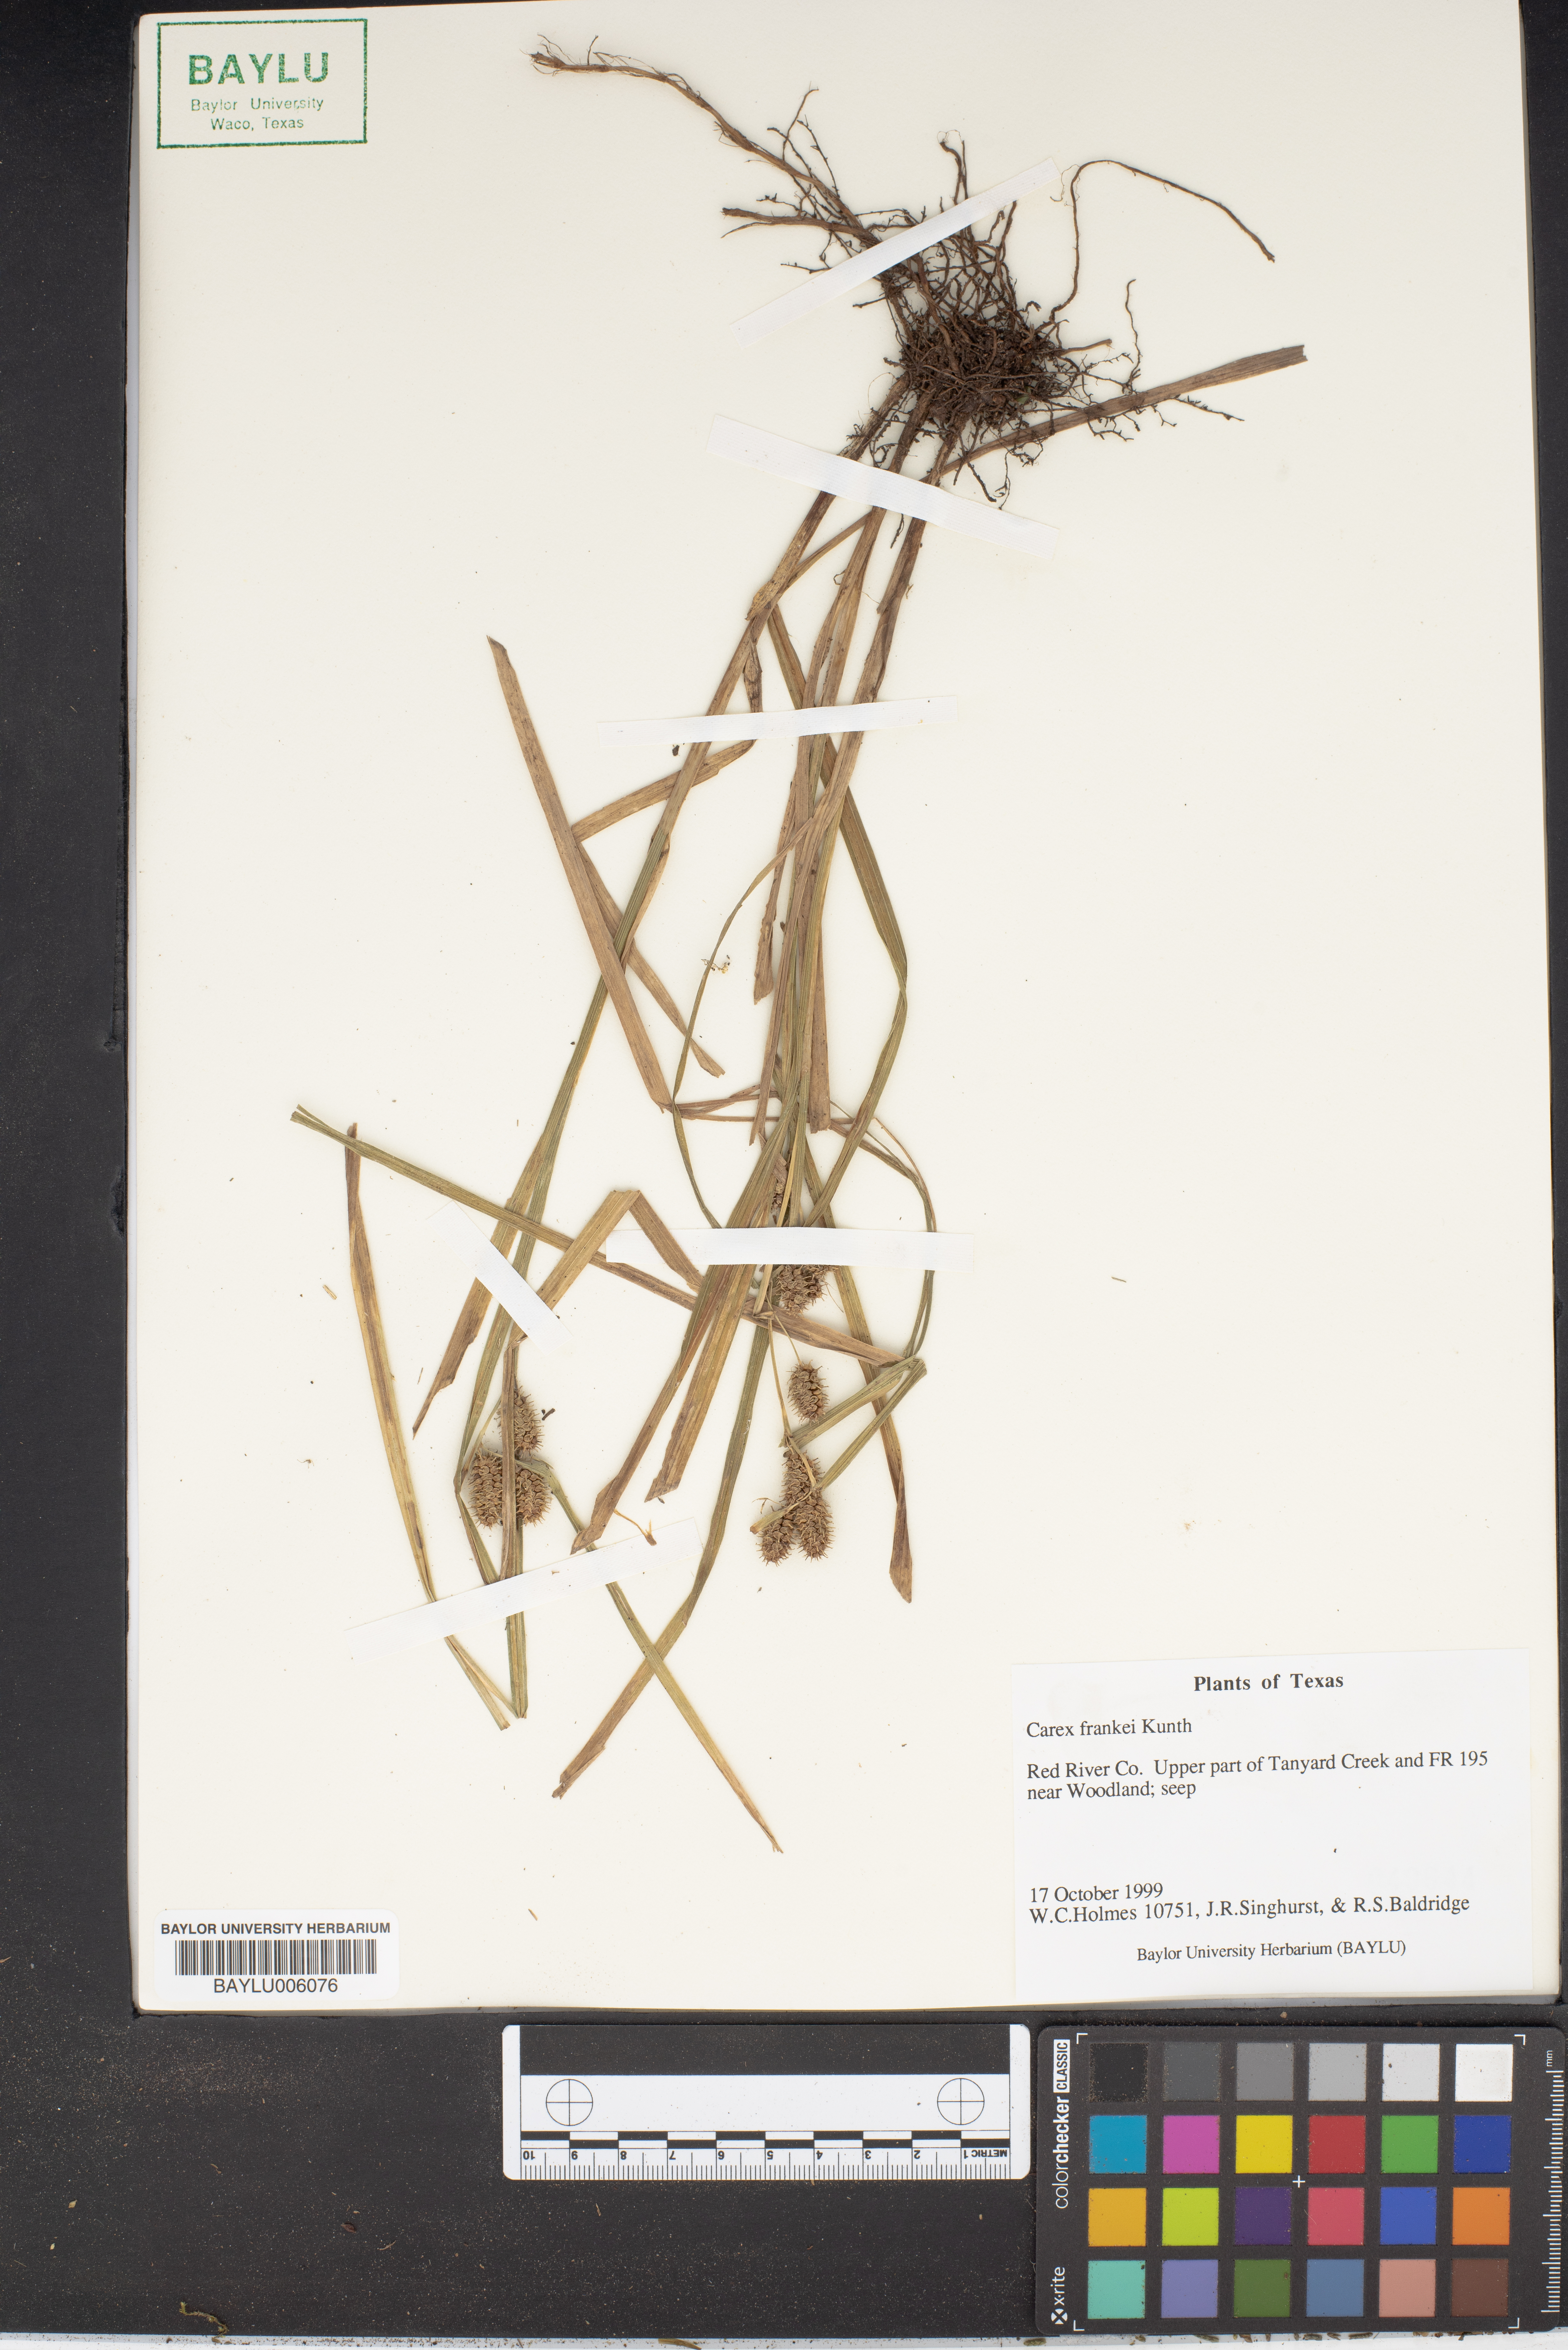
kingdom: Plantae
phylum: Tracheophyta
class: Liliopsida
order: Poales
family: Cyperaceae
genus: Carex
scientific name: Carex frankii
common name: Frank's sedge
